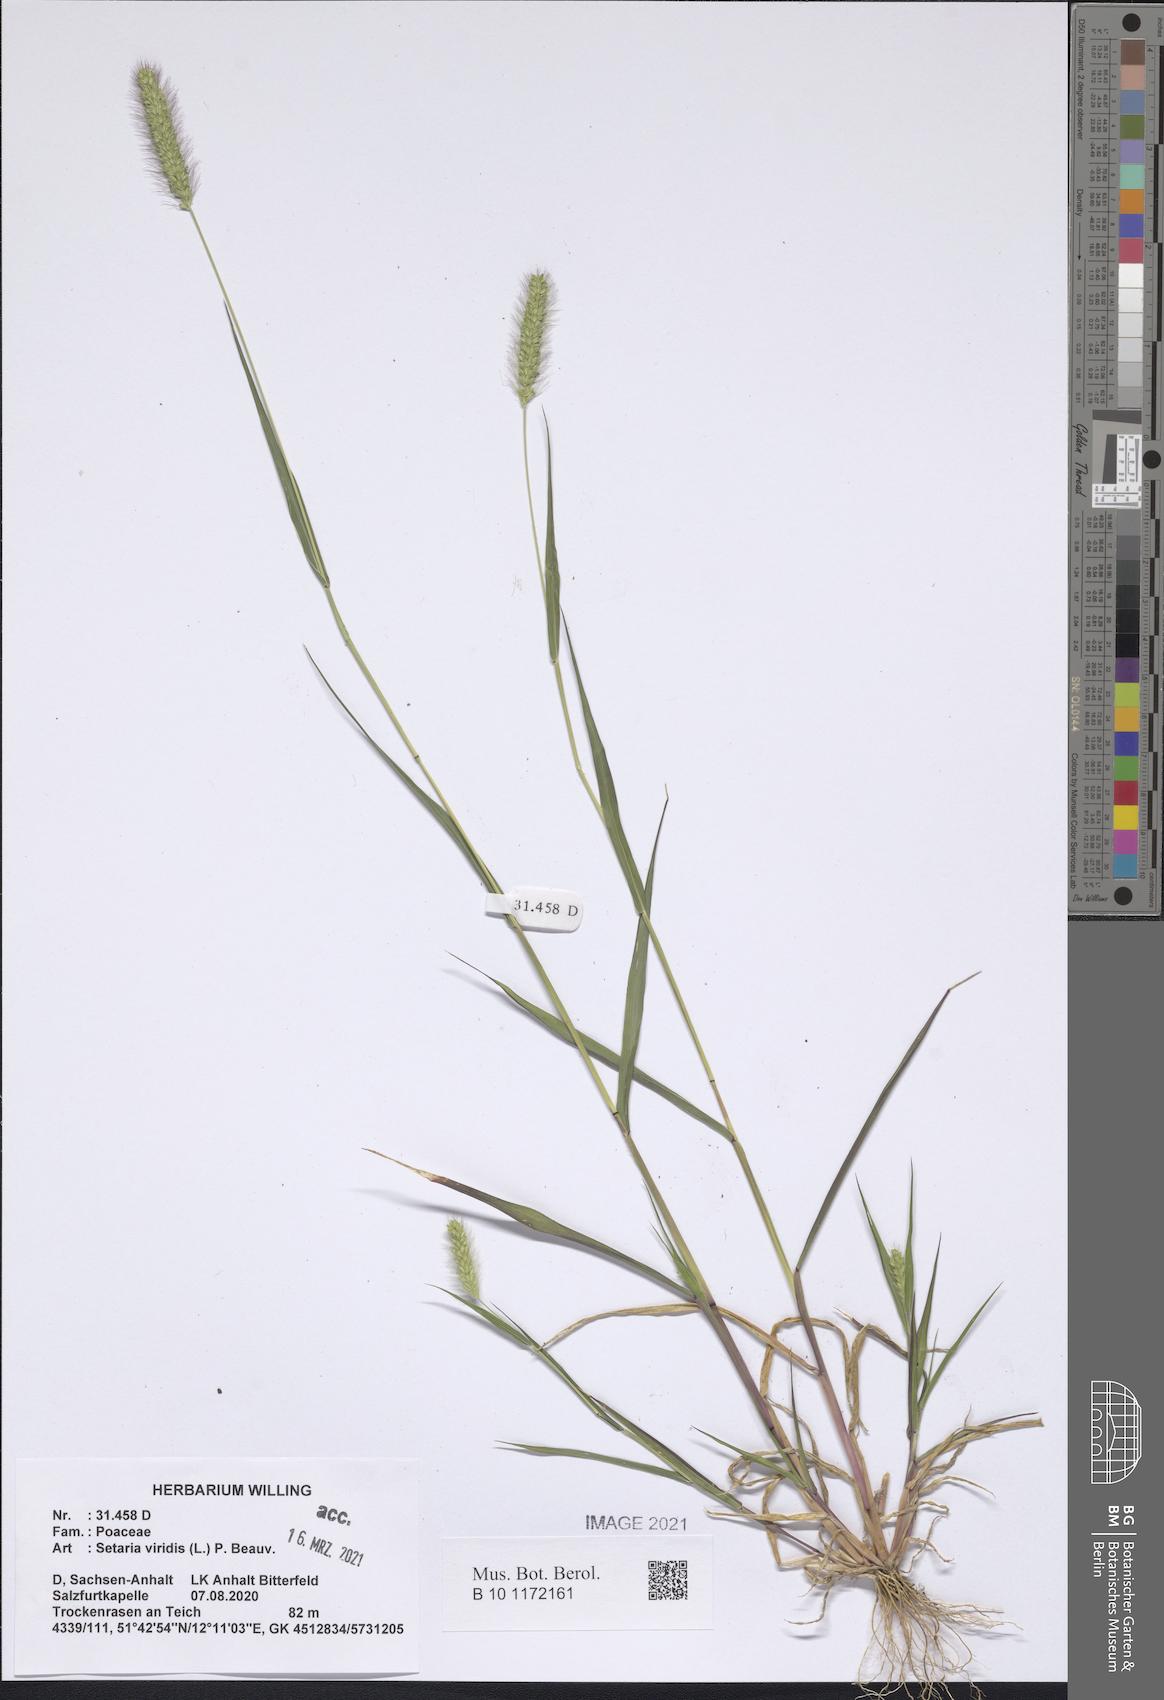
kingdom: Plantae
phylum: Tracheophyta
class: Liliopsida
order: Poales
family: Poaceae
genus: Setaria
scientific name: Setaria viridis
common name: Green bristlegrass
